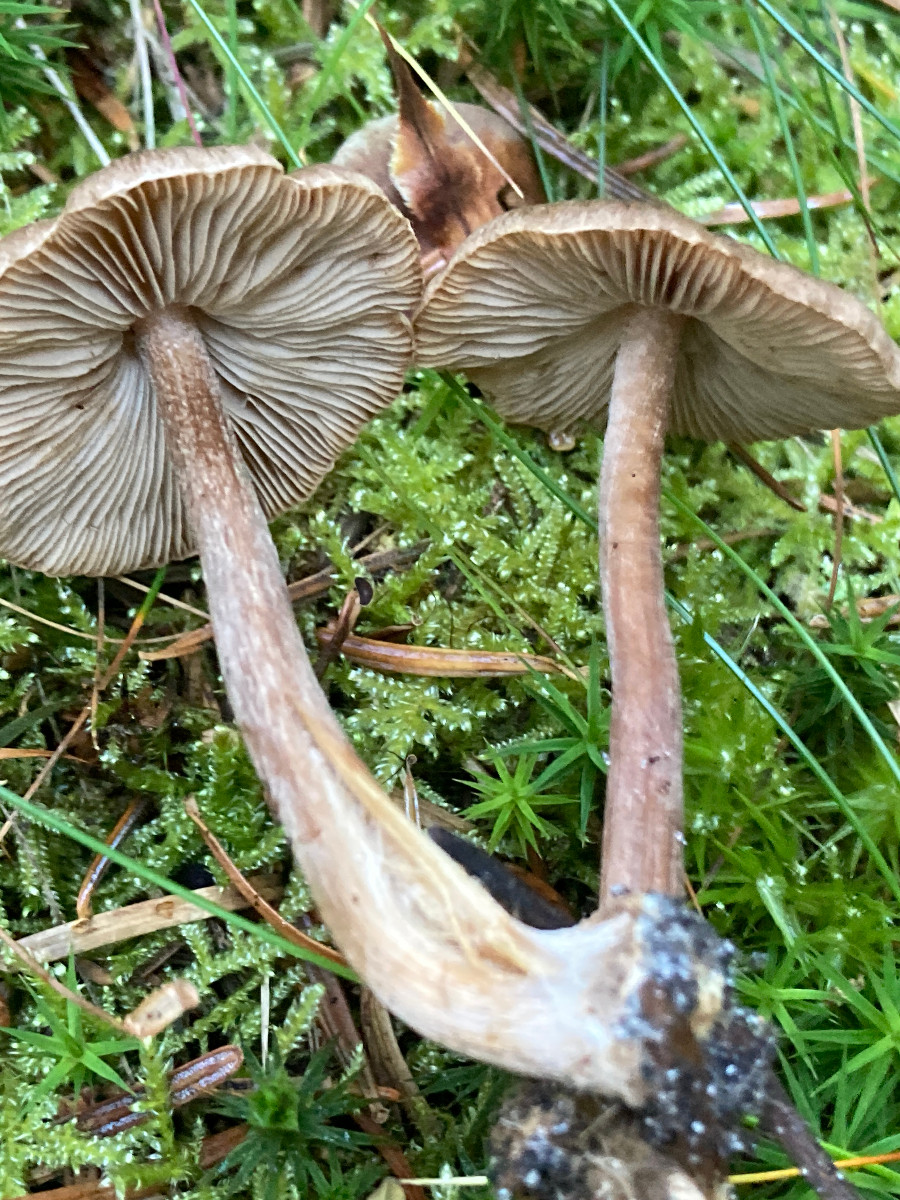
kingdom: Fungi
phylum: Basidiomycota
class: Agaricomycetes
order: Agaricales
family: Inocybaceae
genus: Inocybe
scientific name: Inocybe
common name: trævlhat
